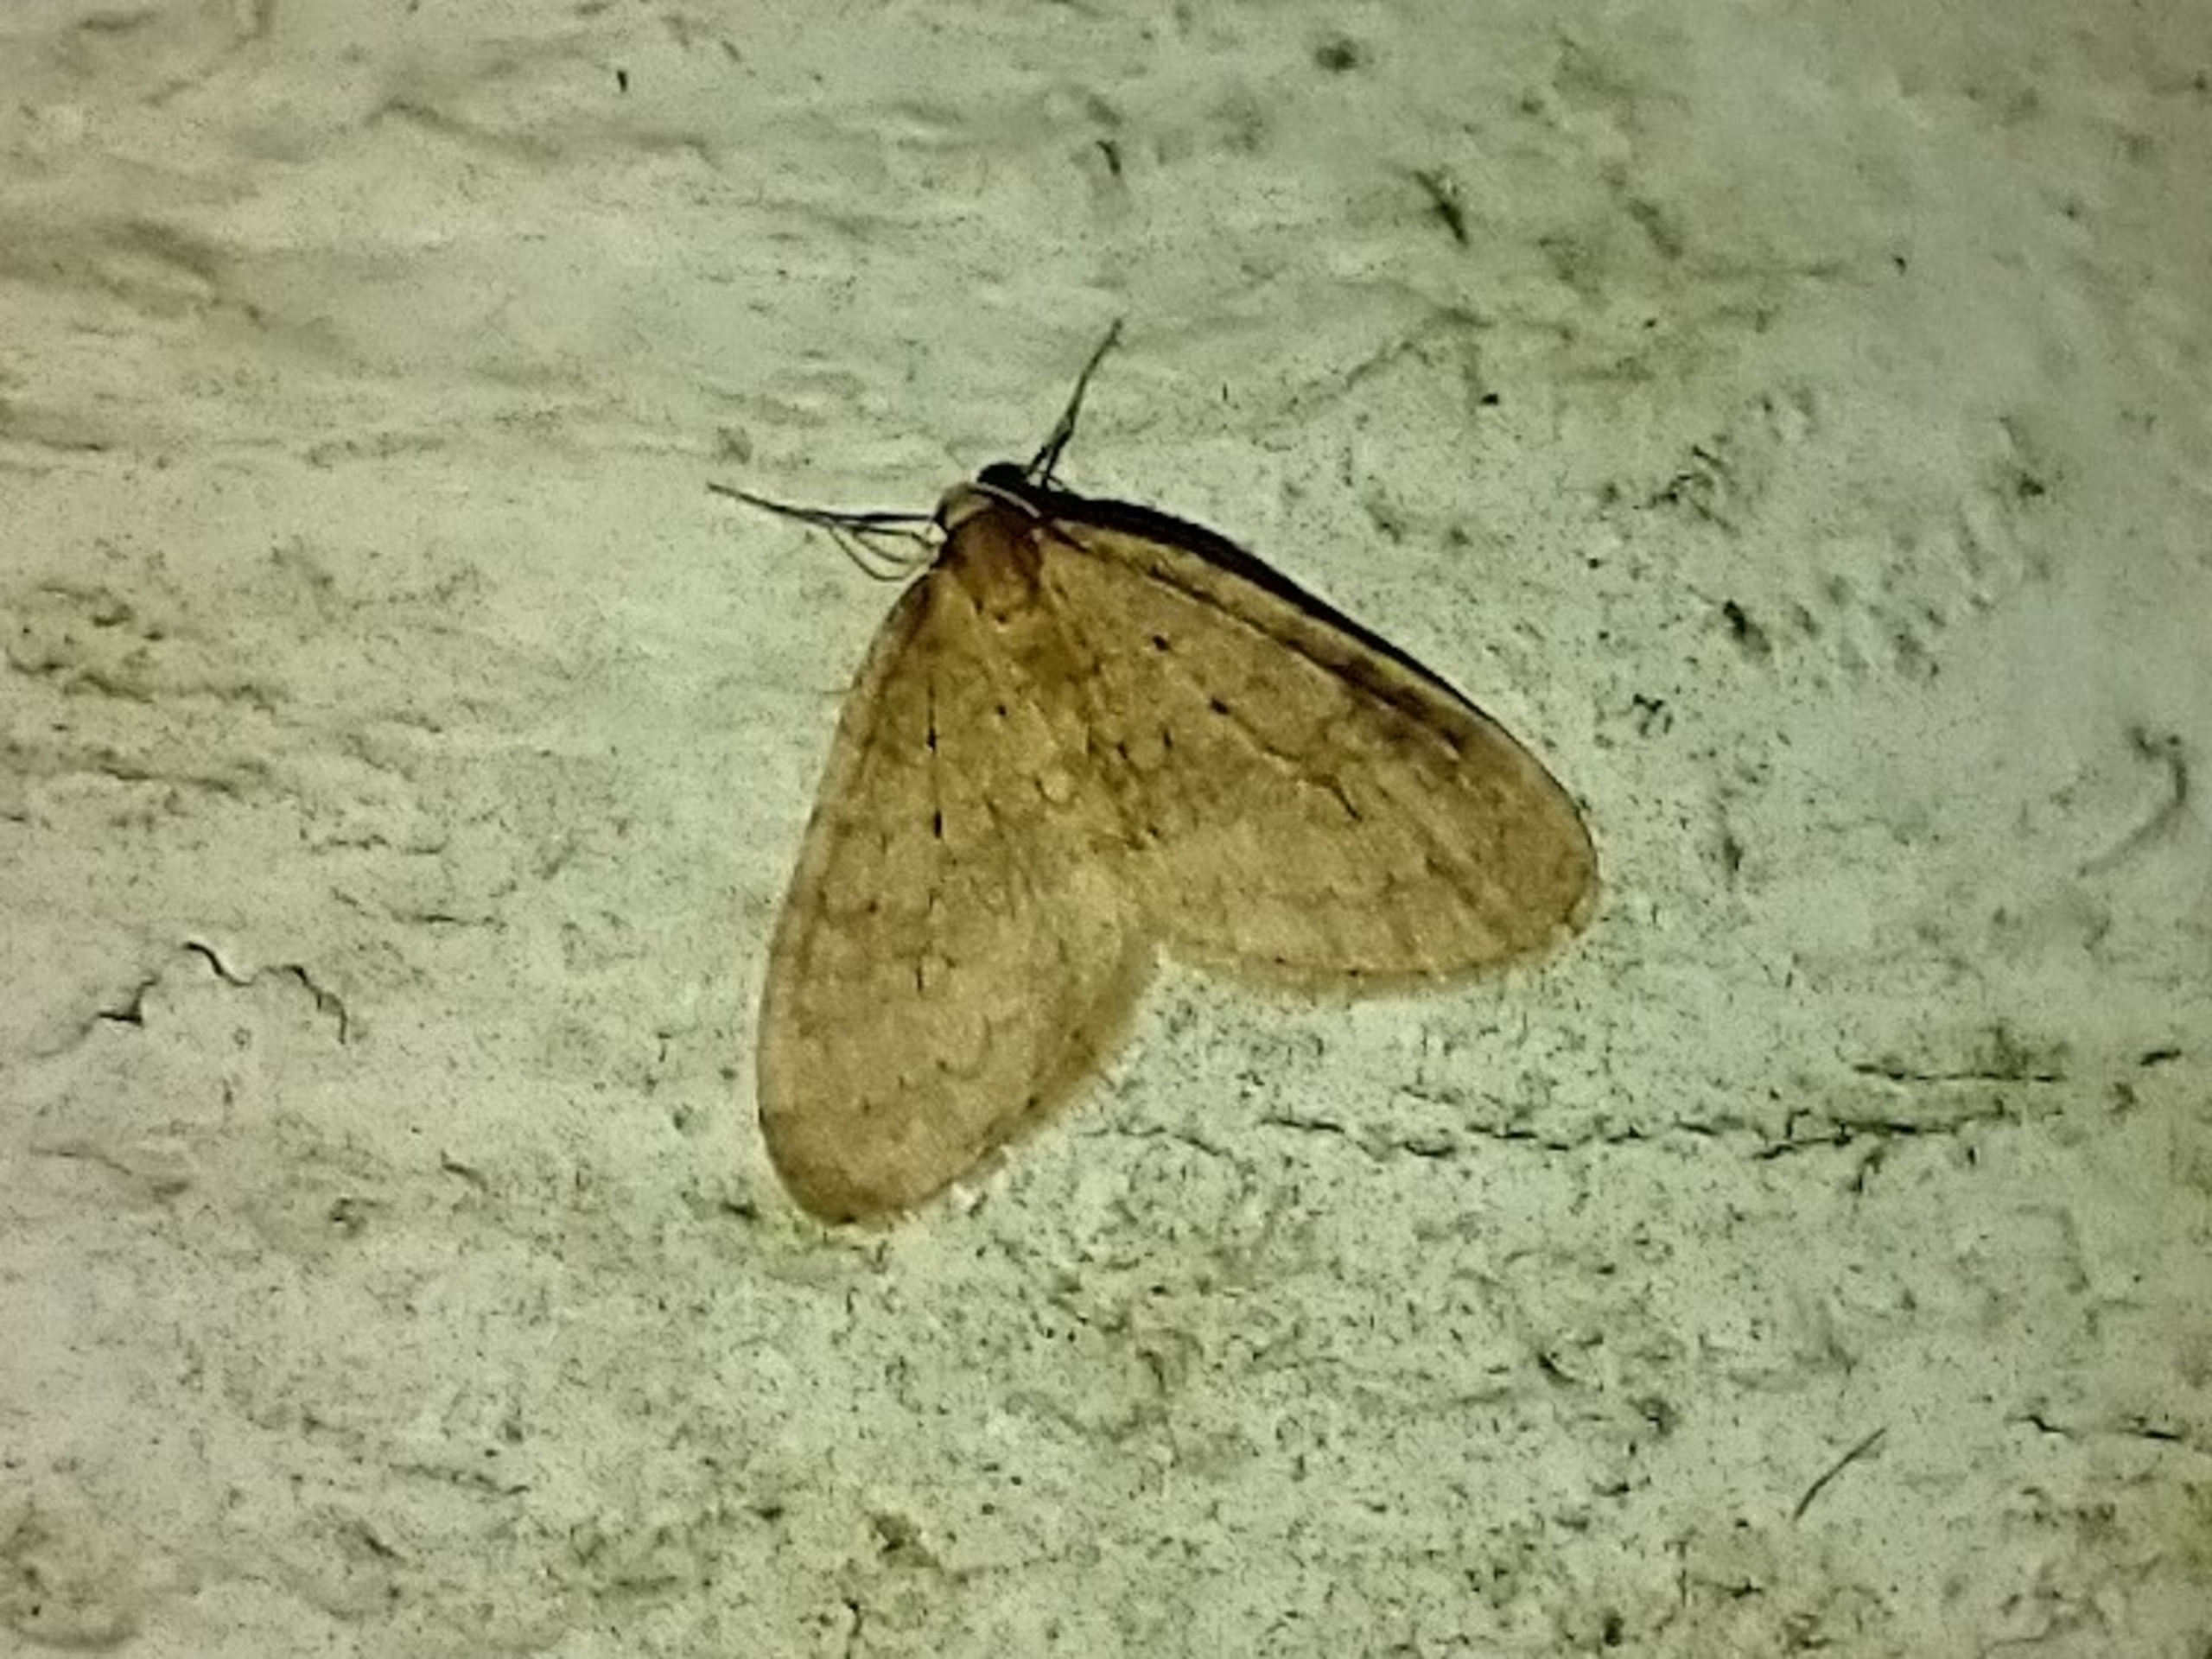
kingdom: Animalia
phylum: Arthropoda
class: Insecta
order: Lepidoptera
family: Geometridae
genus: Operophtera
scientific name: Operophtera brumata
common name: Lille frostmåler
